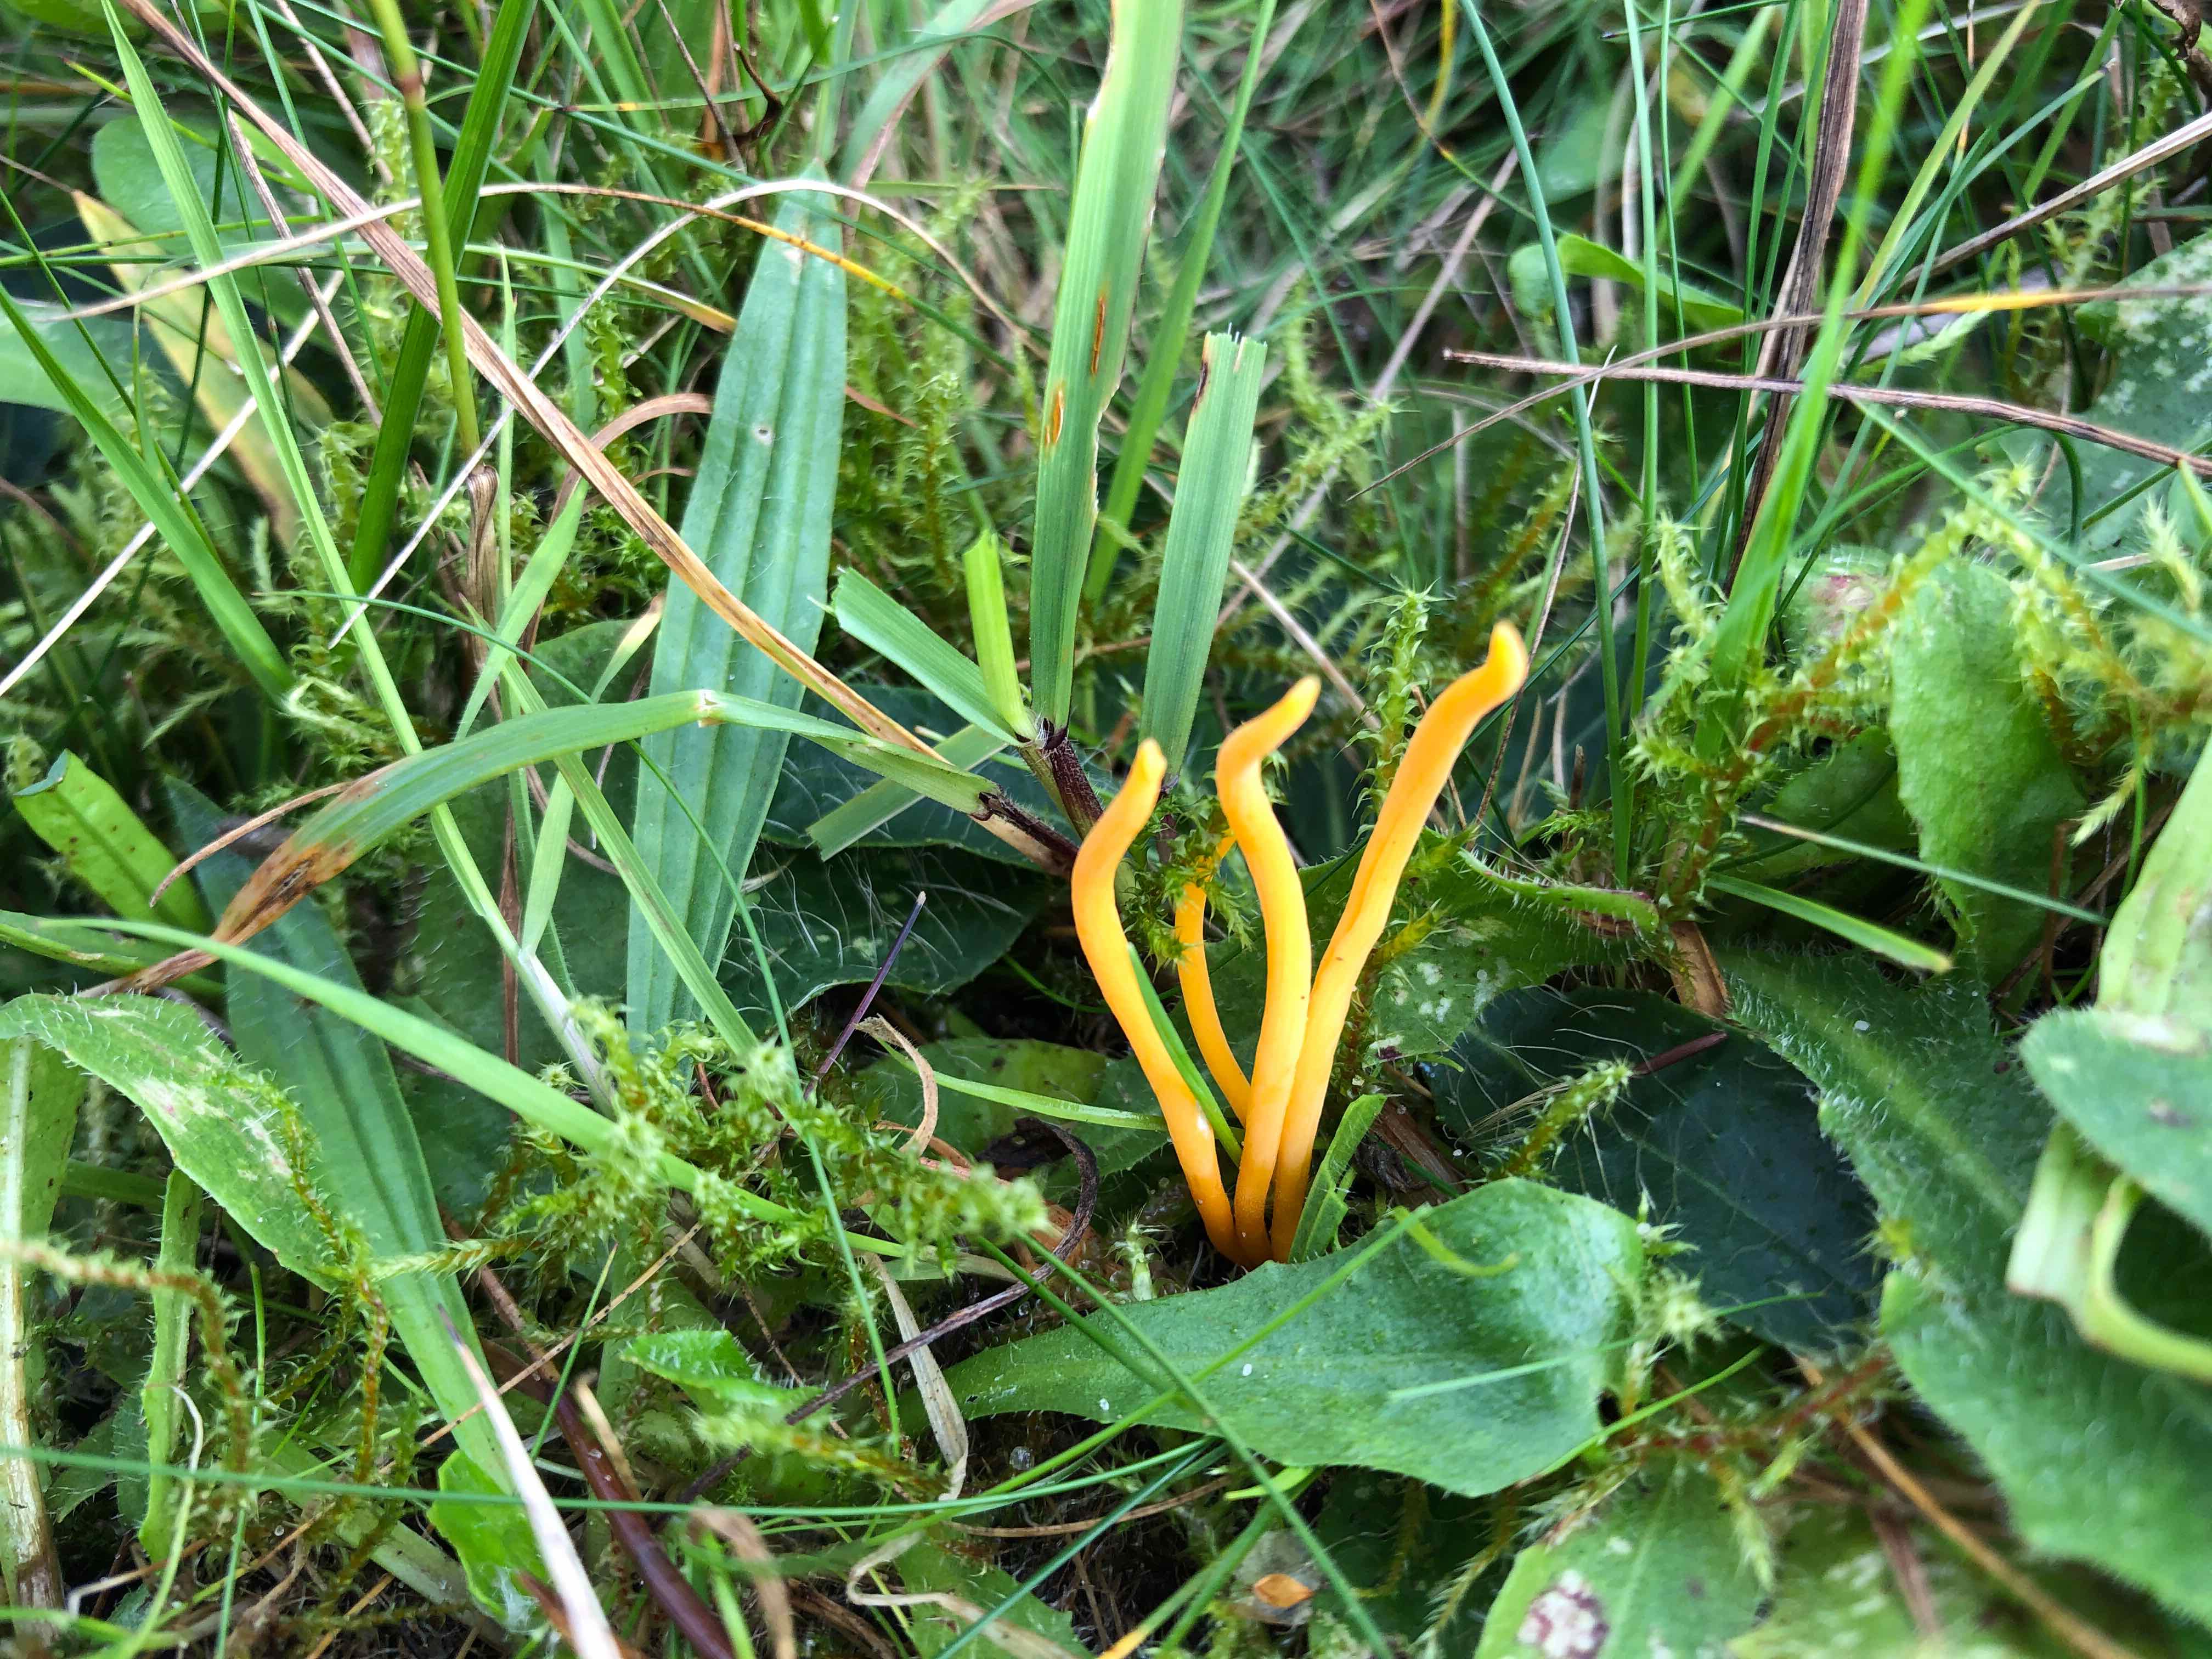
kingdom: Fungi
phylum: Basidiomycota
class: Agaricomycetes
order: Agaricales
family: Clavariaceae
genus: Clavulinopsis
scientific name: Clavulinopsis luteoalba
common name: abrikos-køllesvamp
